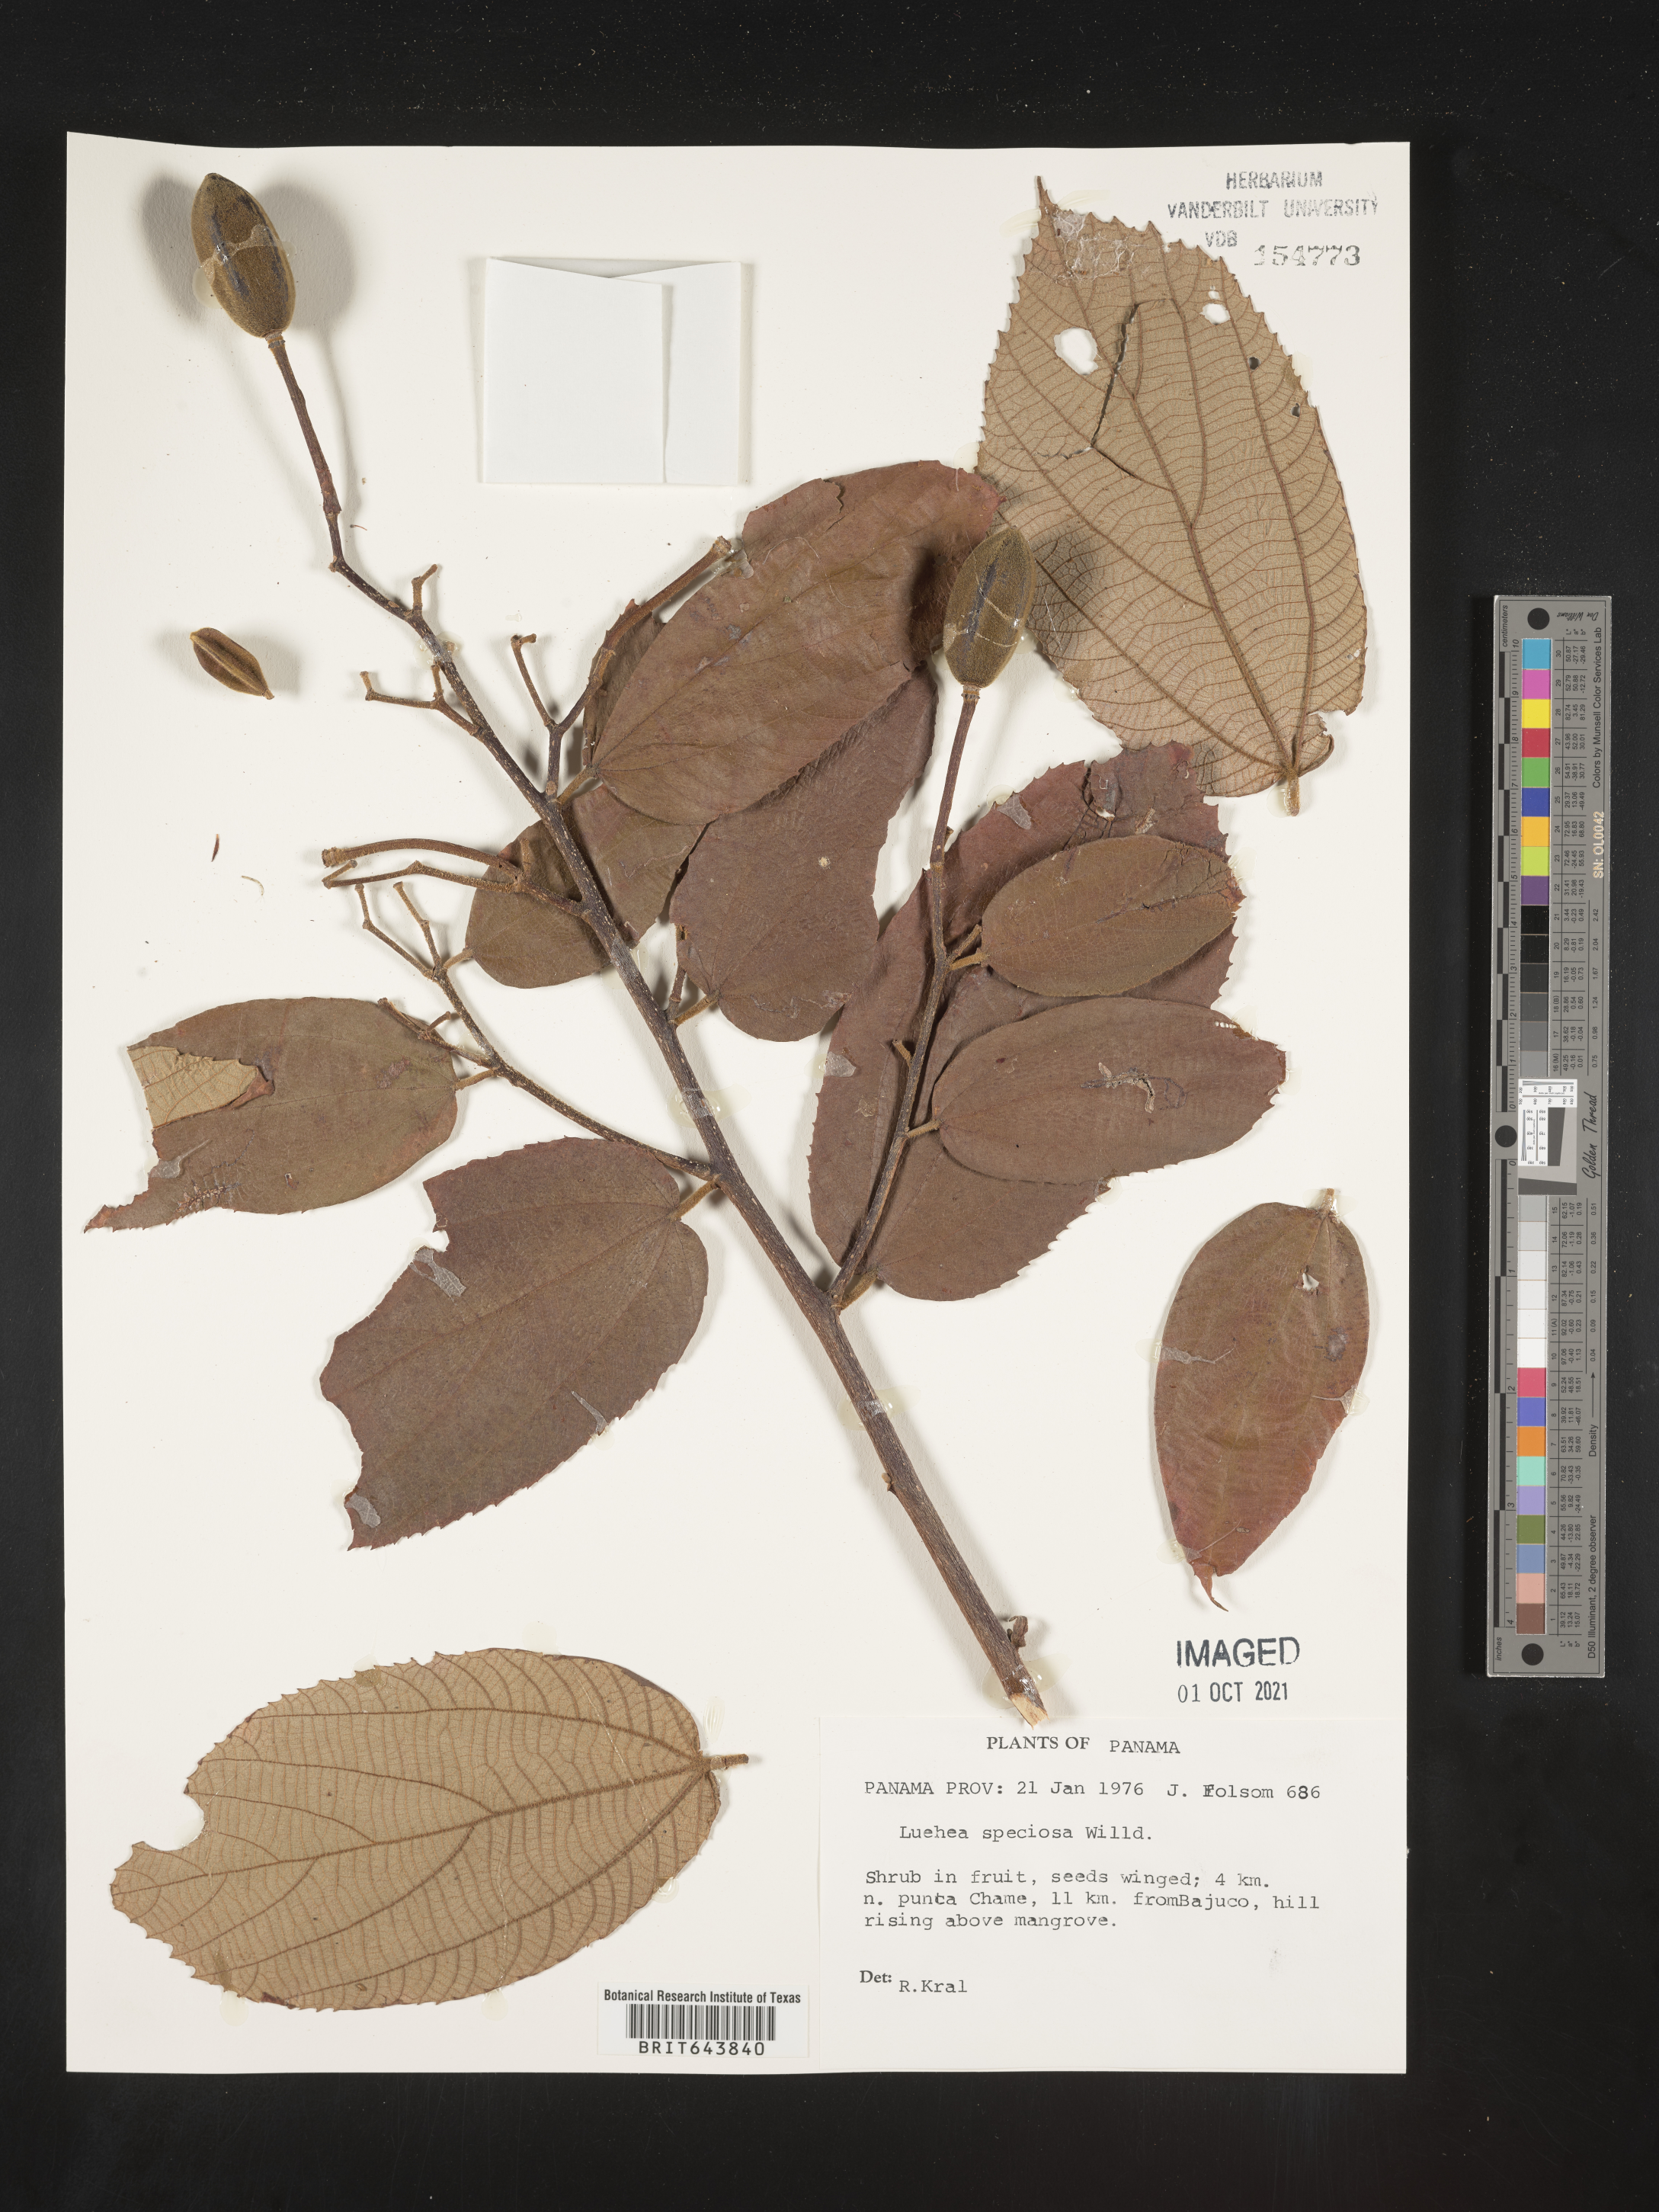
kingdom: Plantae
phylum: Tracheophyta
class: Magnoliopsida
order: Malvales
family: Malvaceae
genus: Luehea
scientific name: Luehea
